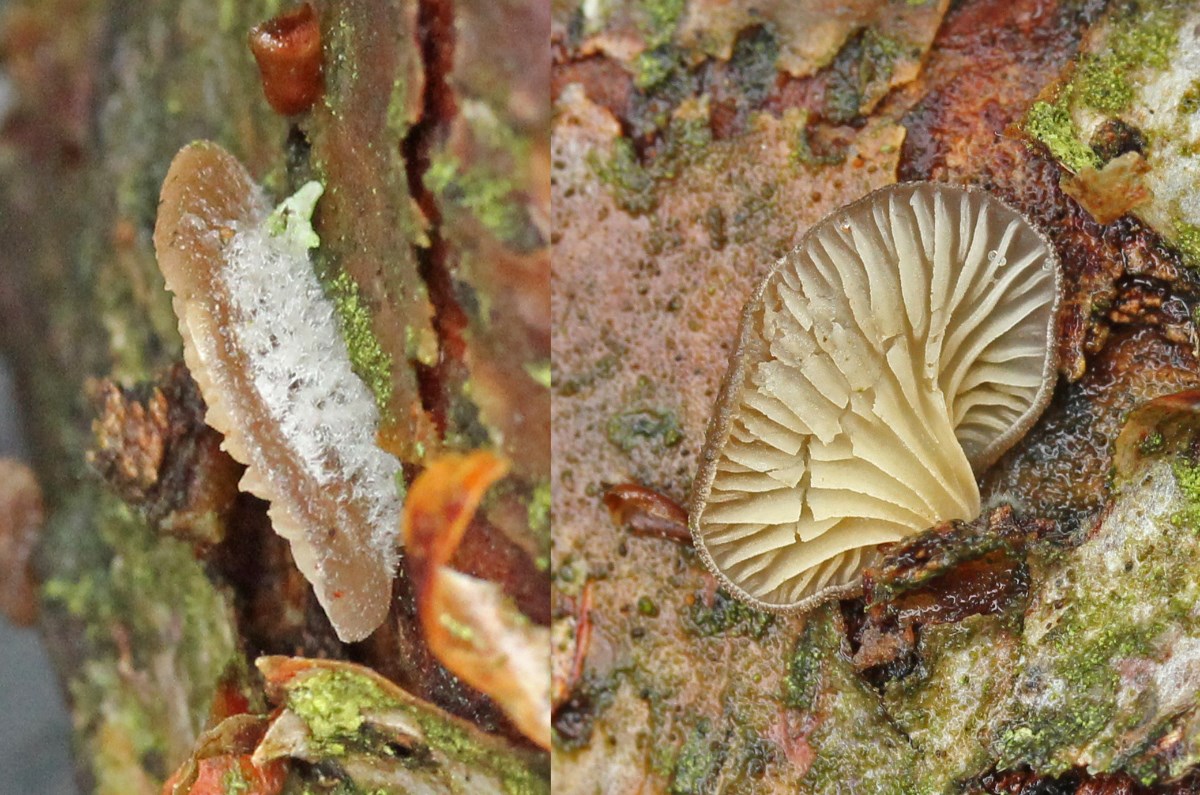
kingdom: Fungi
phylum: Basidiomycota
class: Agaricomycetes
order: Agaricales
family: Pleurotaceae
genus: Hohenbuehelia
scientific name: Hohenbuehelia fluxilis
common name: pile-filthat
